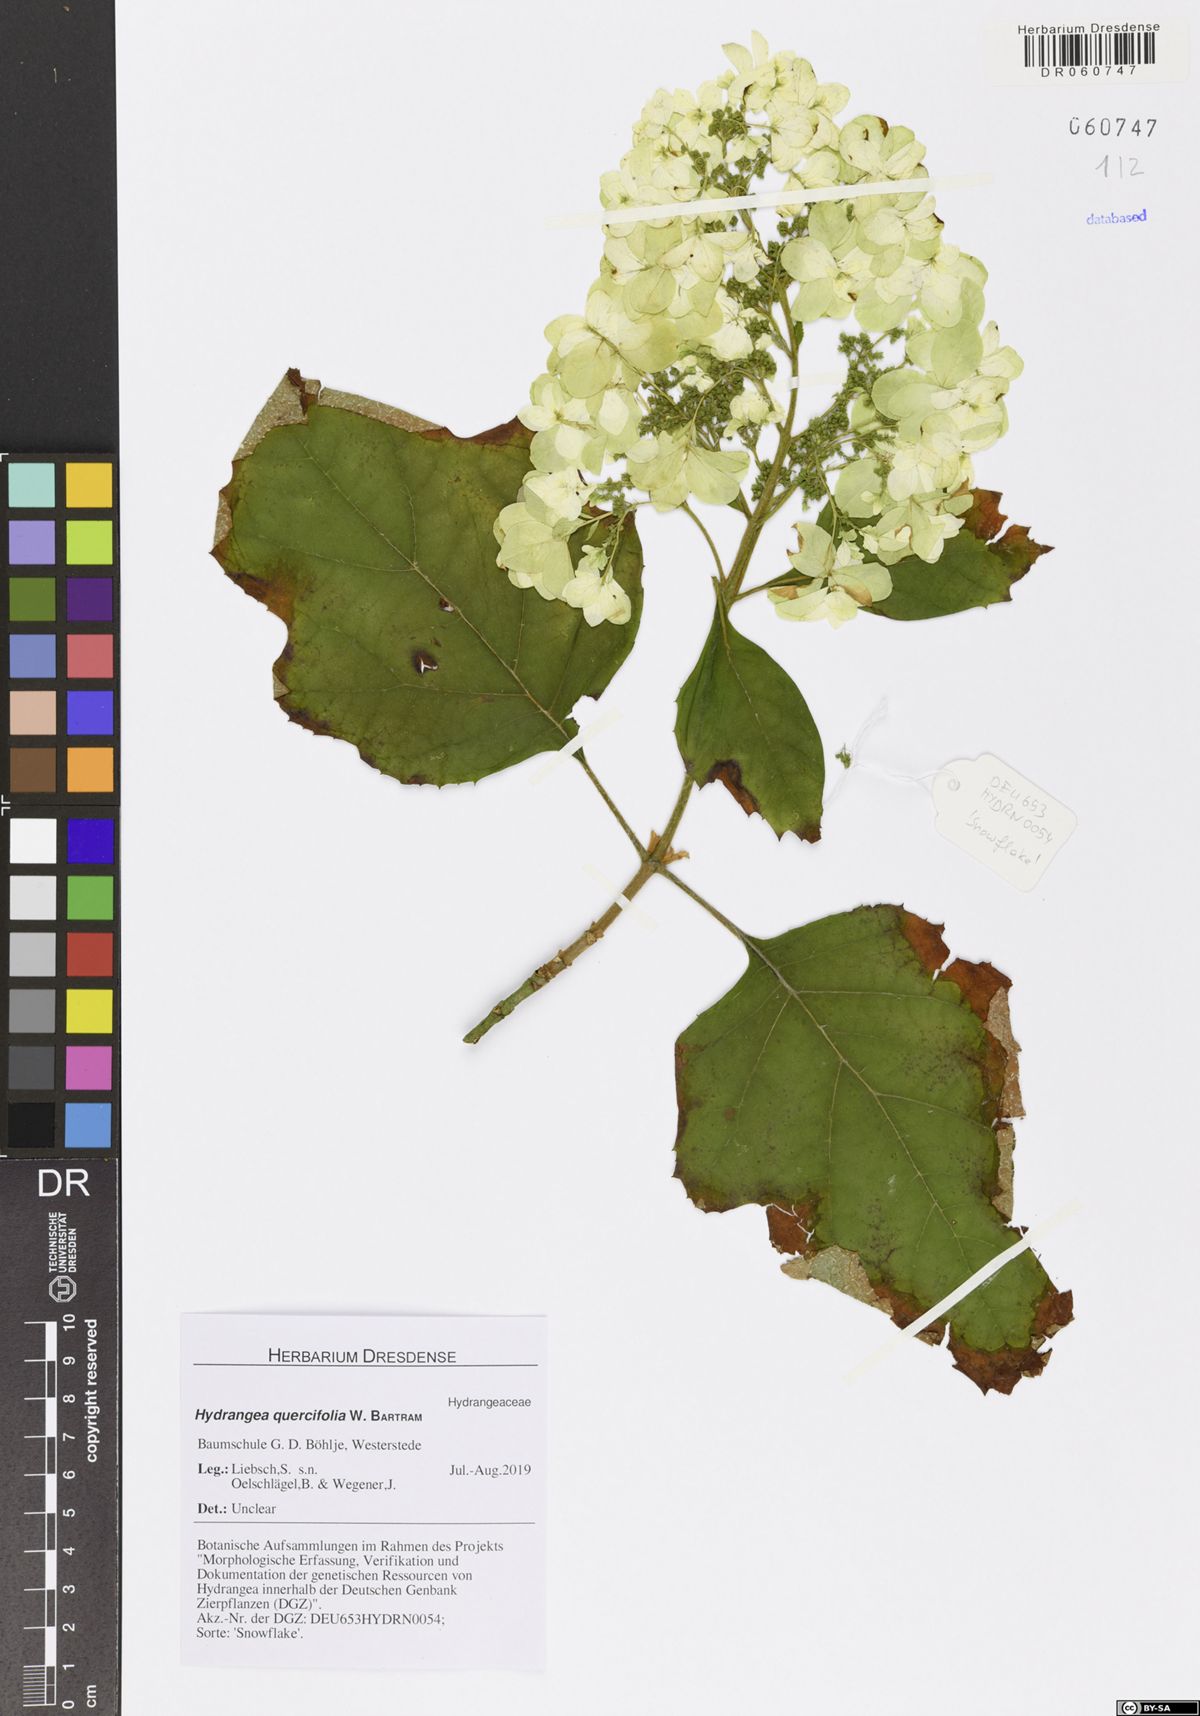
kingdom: Plantae
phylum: Tracheophyta
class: Magnoliopsida
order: Cornales
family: Hydrangeaceae
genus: Hydrangea
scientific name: Hydrangea quercifolia
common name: Oak-leaf hydrangea
